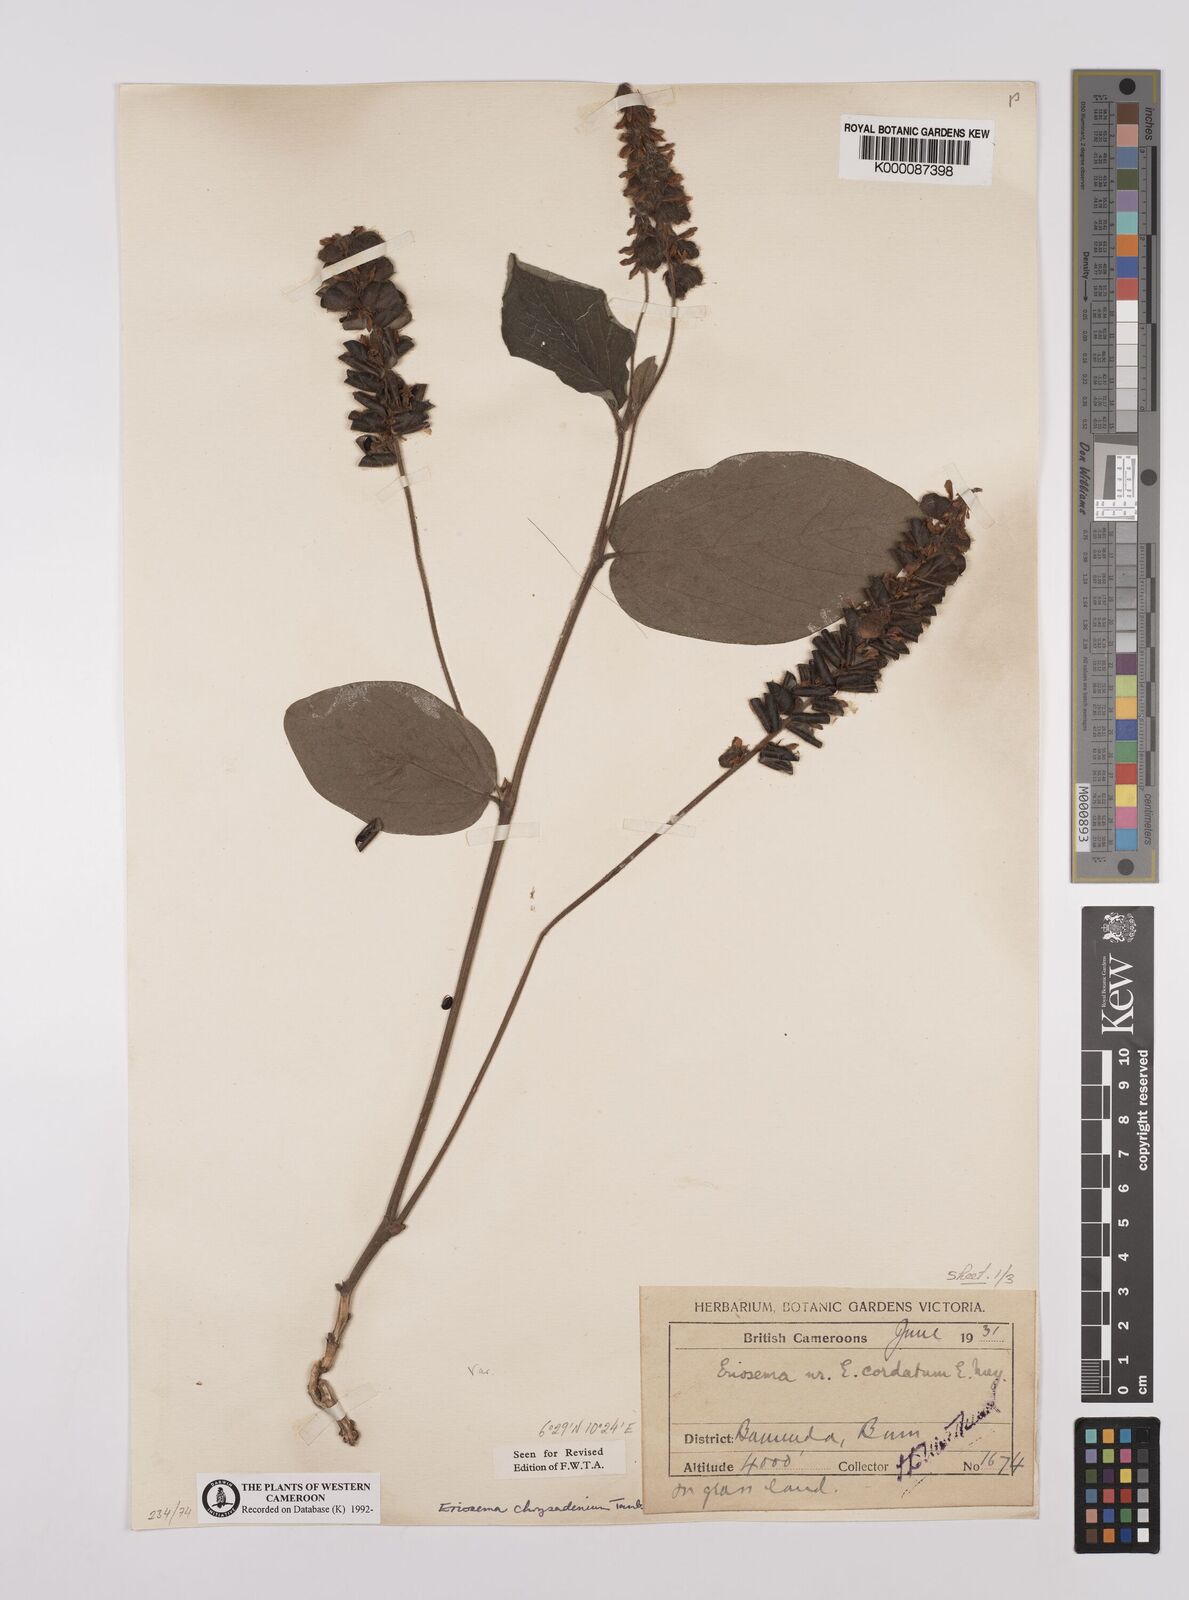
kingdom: Plantae
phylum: Tracheophyta
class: Magnoliopsida
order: Fabales
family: Fabaceae
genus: Eriosema
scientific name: Eriosema chrysadenium
